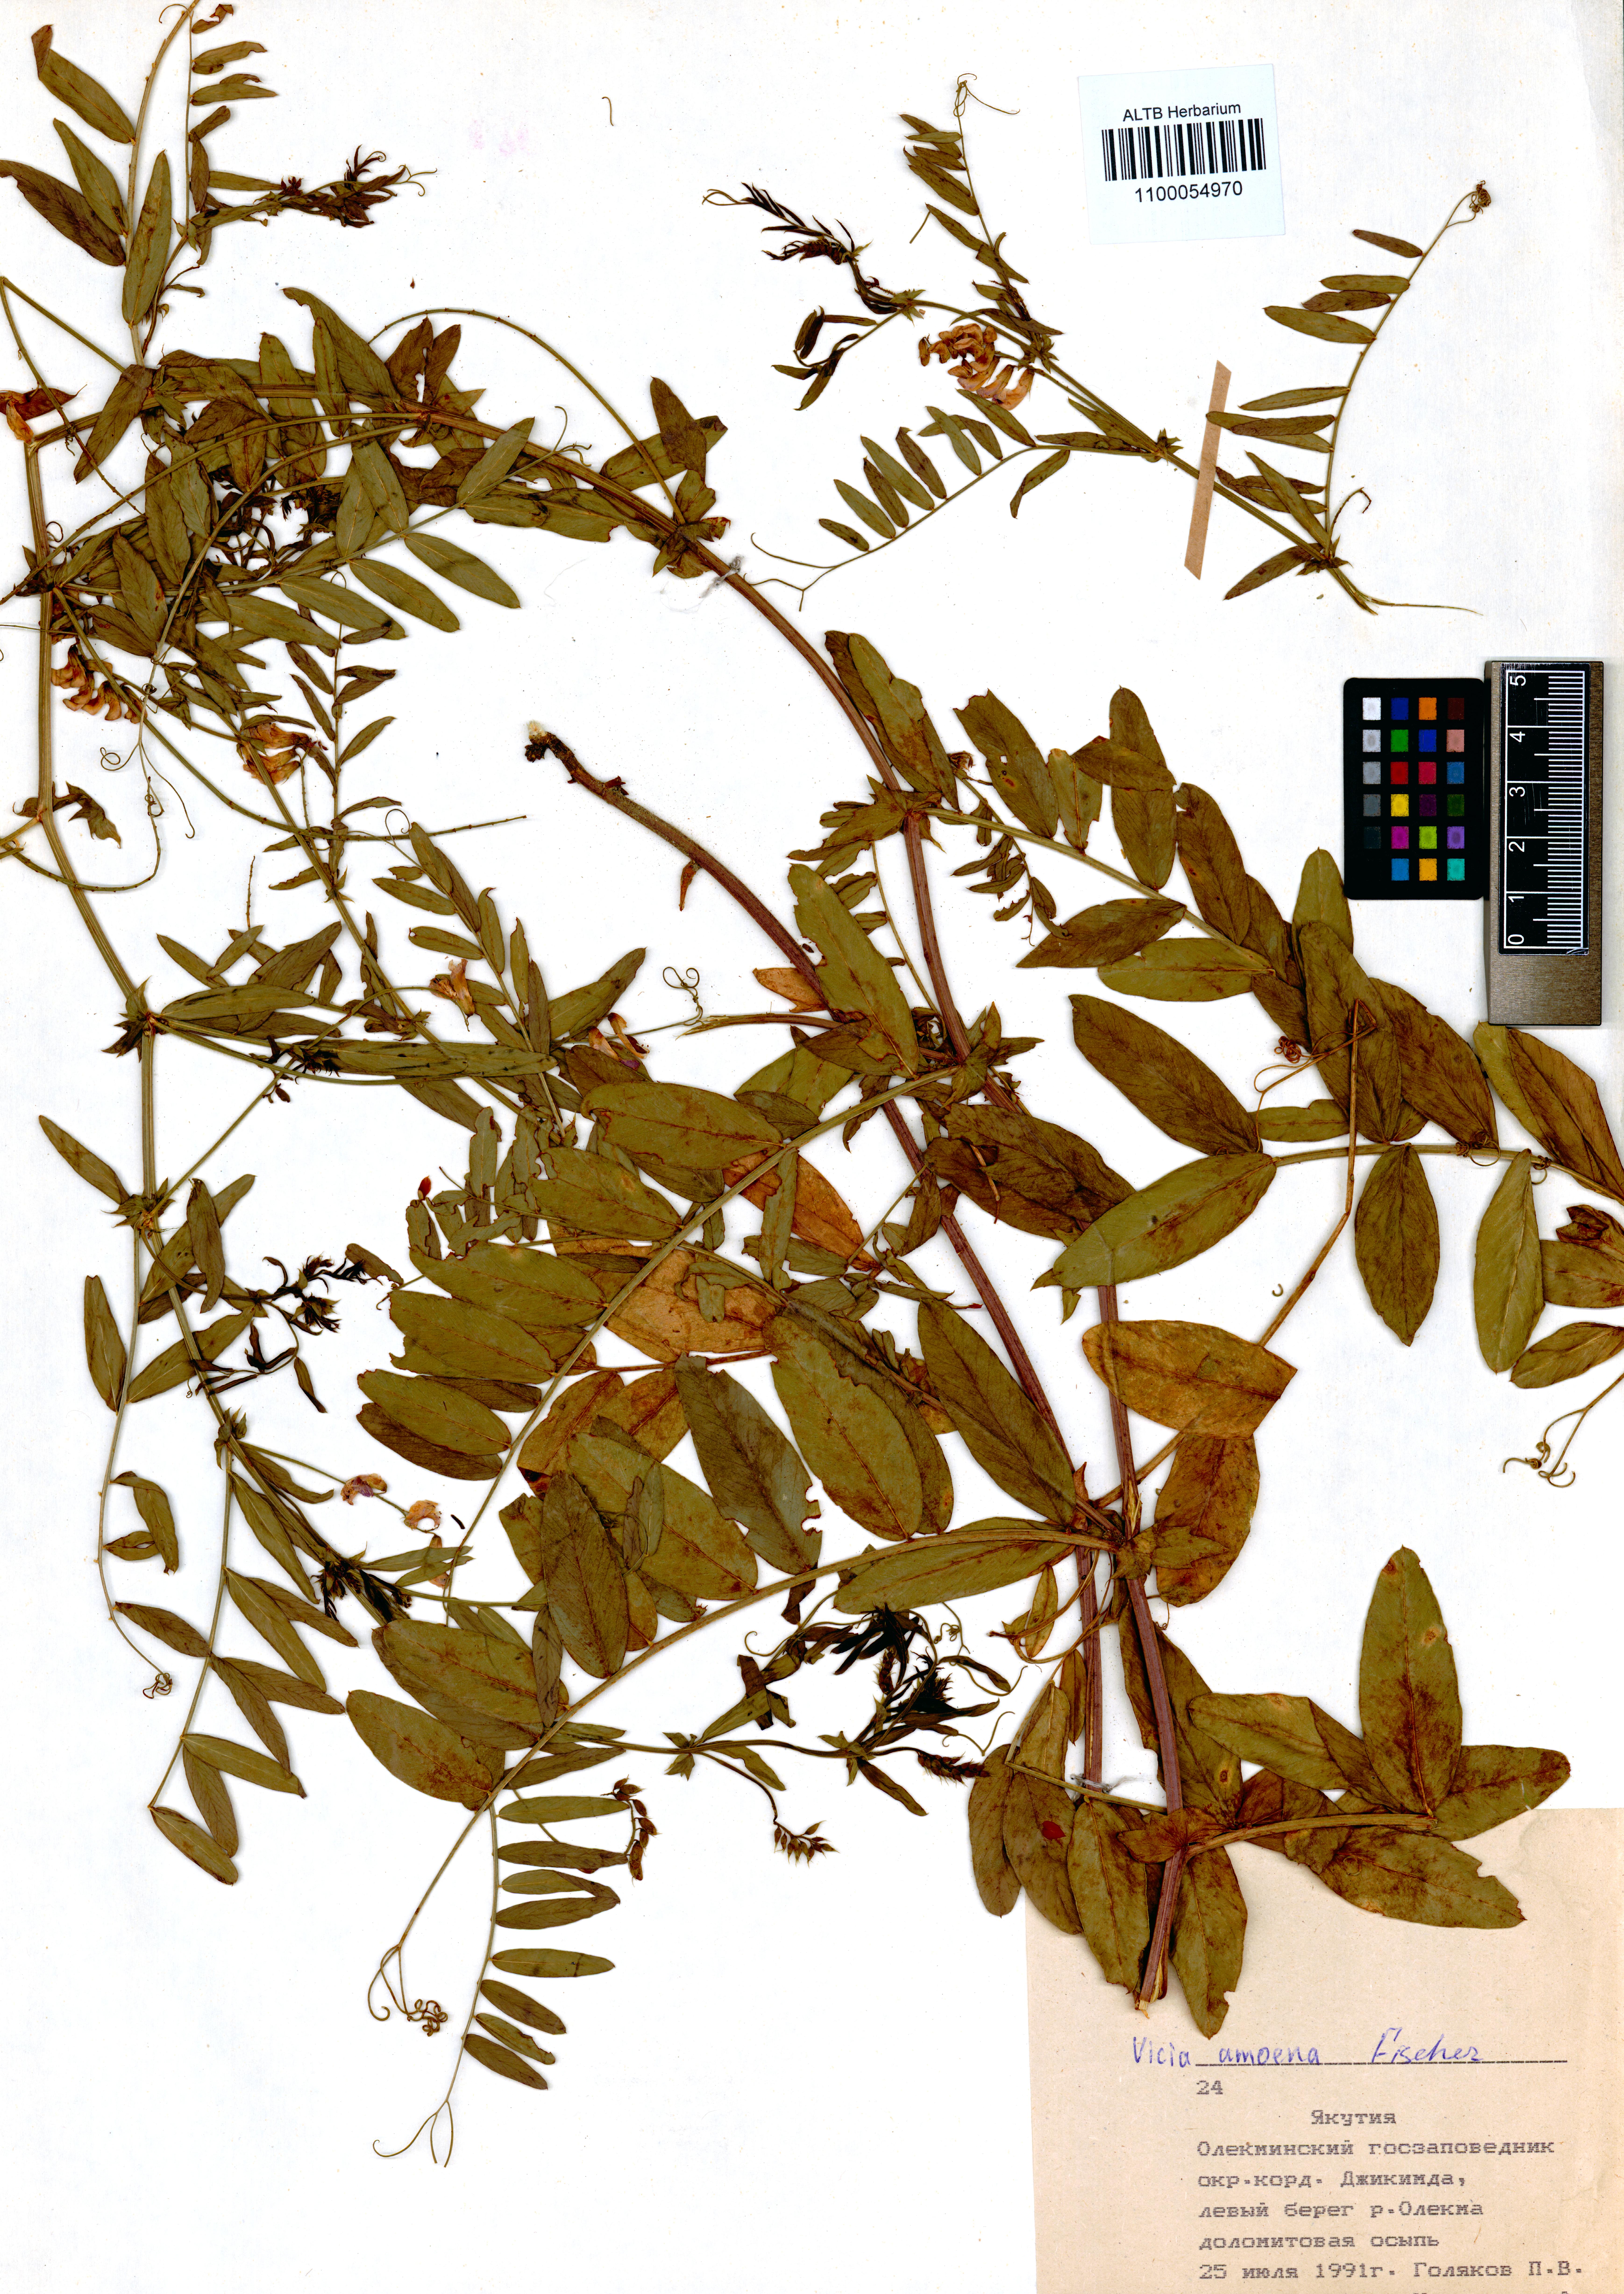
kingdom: Plantae
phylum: Tracheophyta
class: Magnoliopsida
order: Fabales
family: Fabaceae
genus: Vicia
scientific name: Vicia amoena
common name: Cheder ebs
